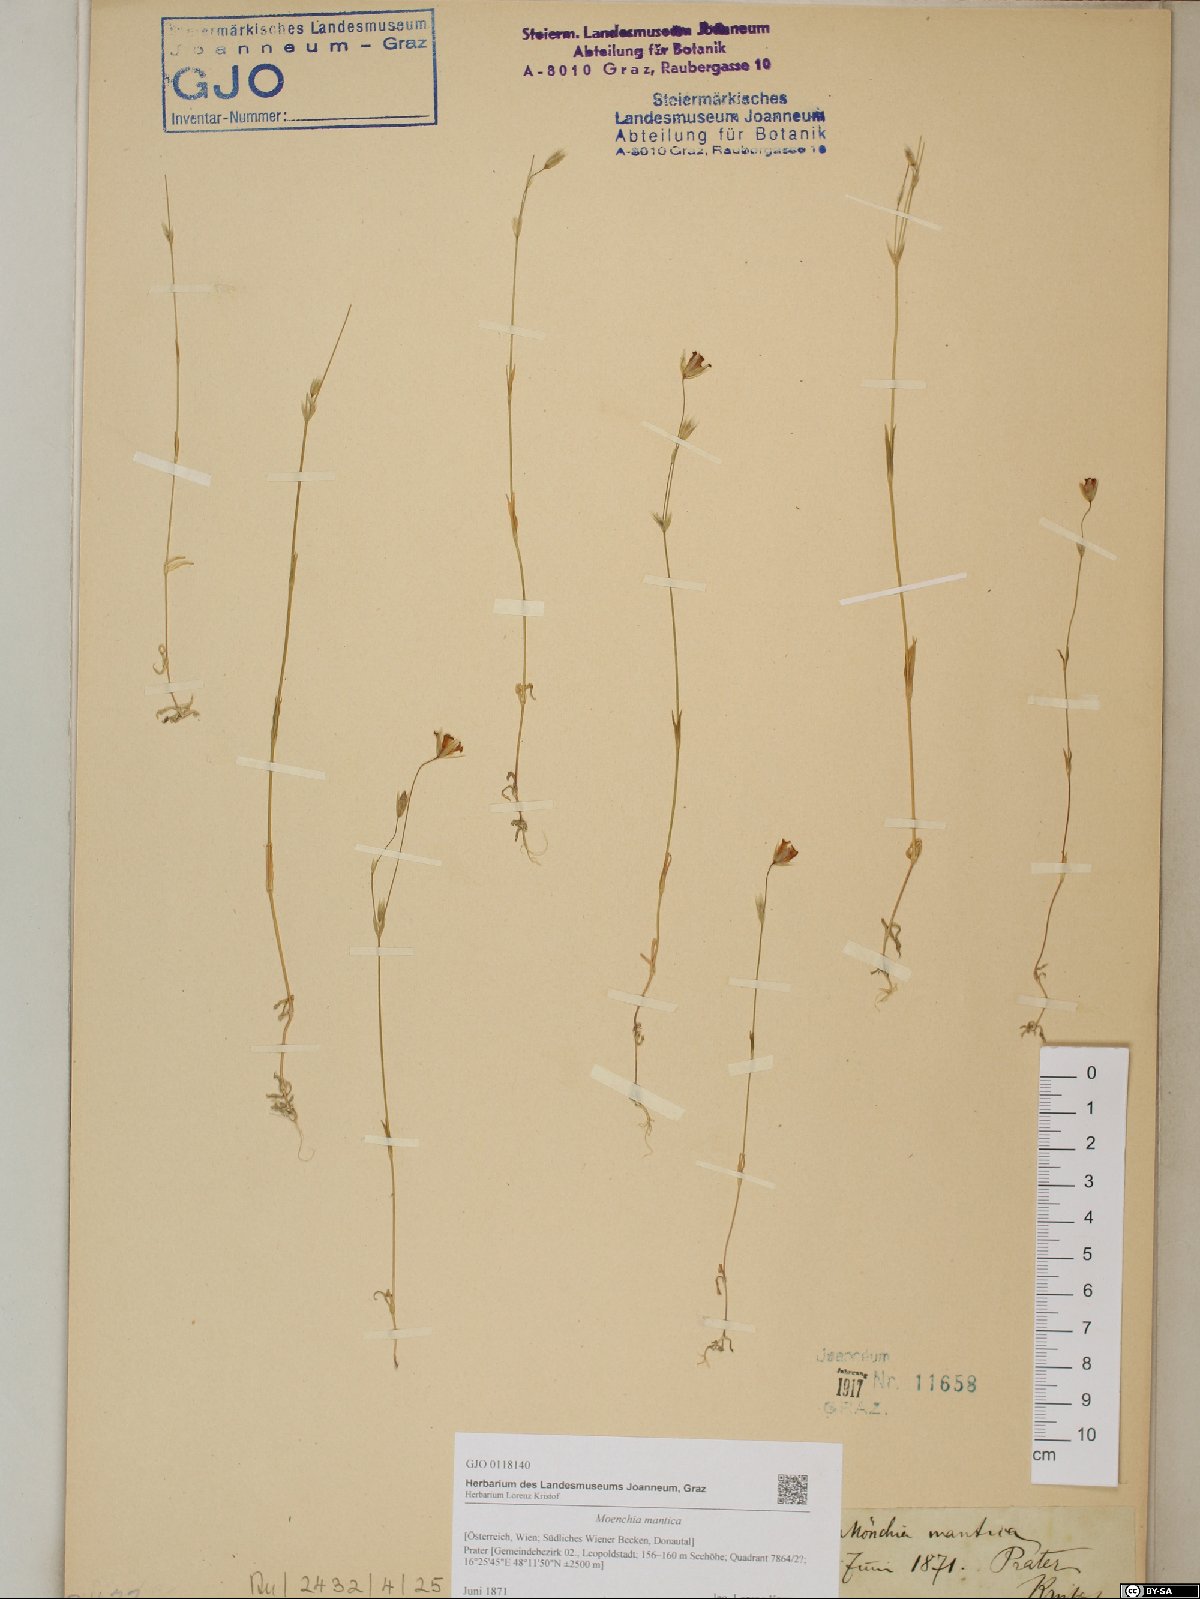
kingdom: Plantae
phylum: Tracheophyta
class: Magnoliopsida
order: Caryophyllales
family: Caryophyllaceae
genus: Moenchia
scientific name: Moenchia mantica
